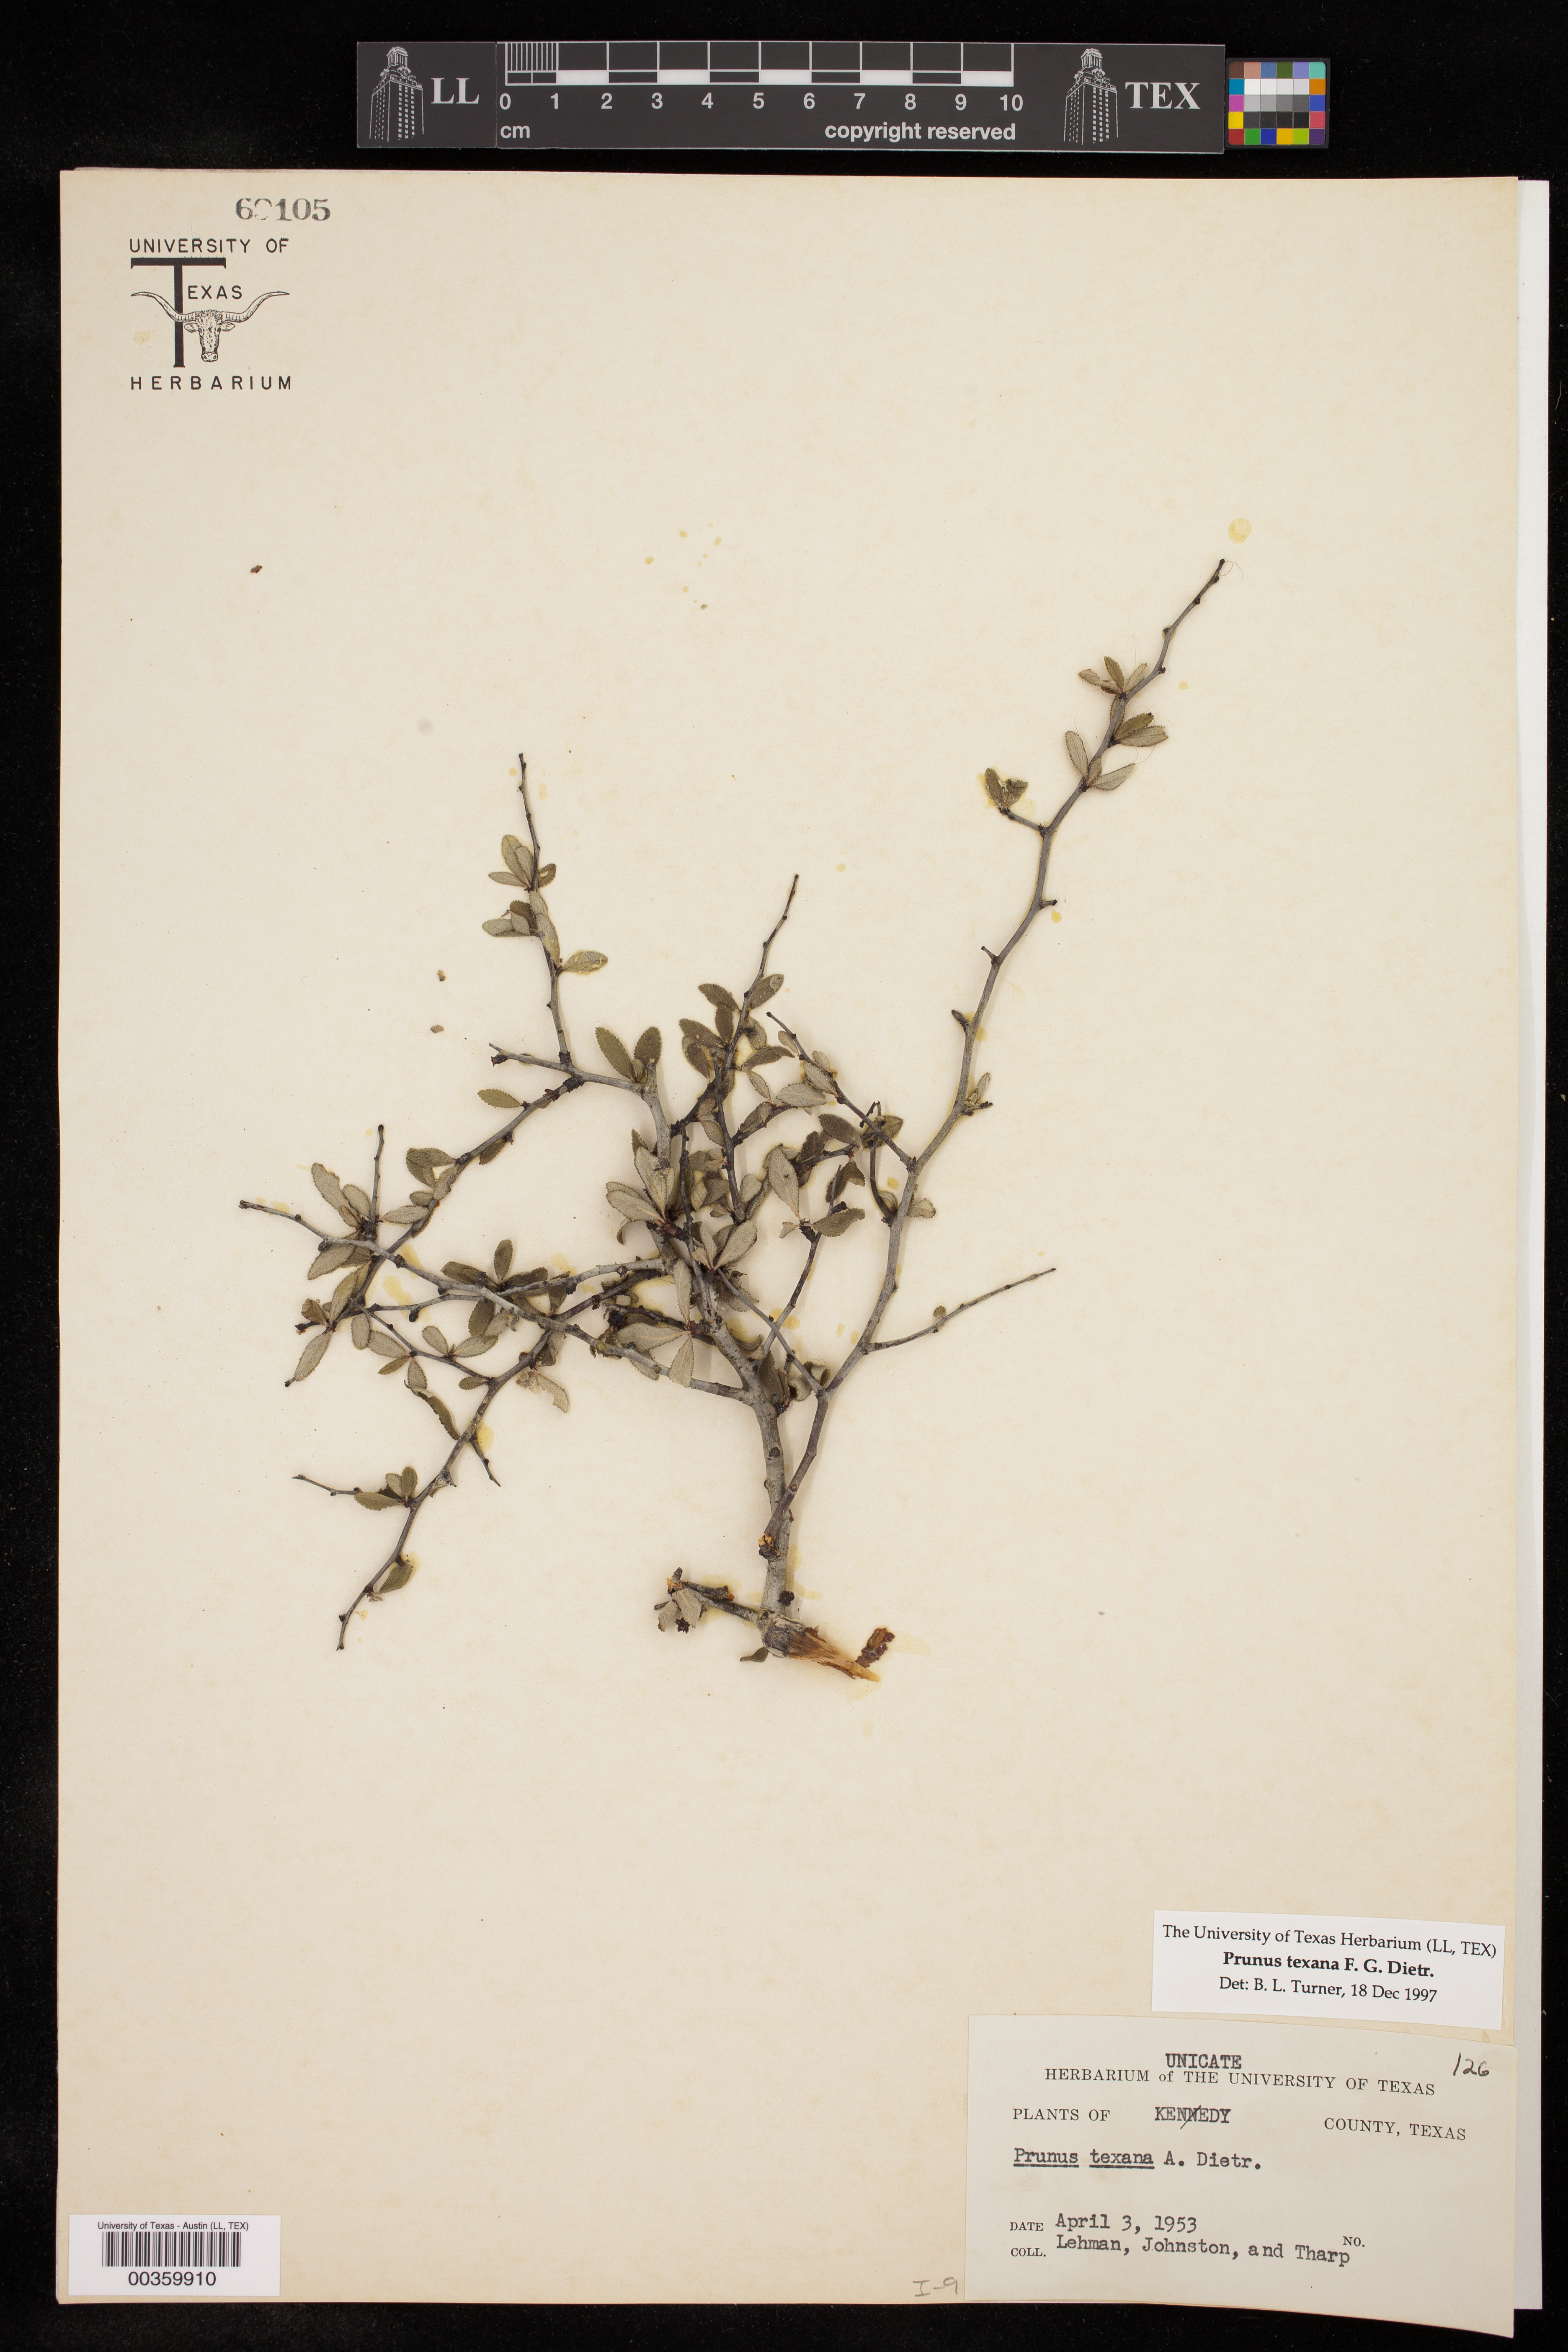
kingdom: Plantae
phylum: Tracheophyta
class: Magnoliopsida
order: Rosales
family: Rosaceae
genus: Prunus
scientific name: Prunus texana
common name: Texas almond cherry
